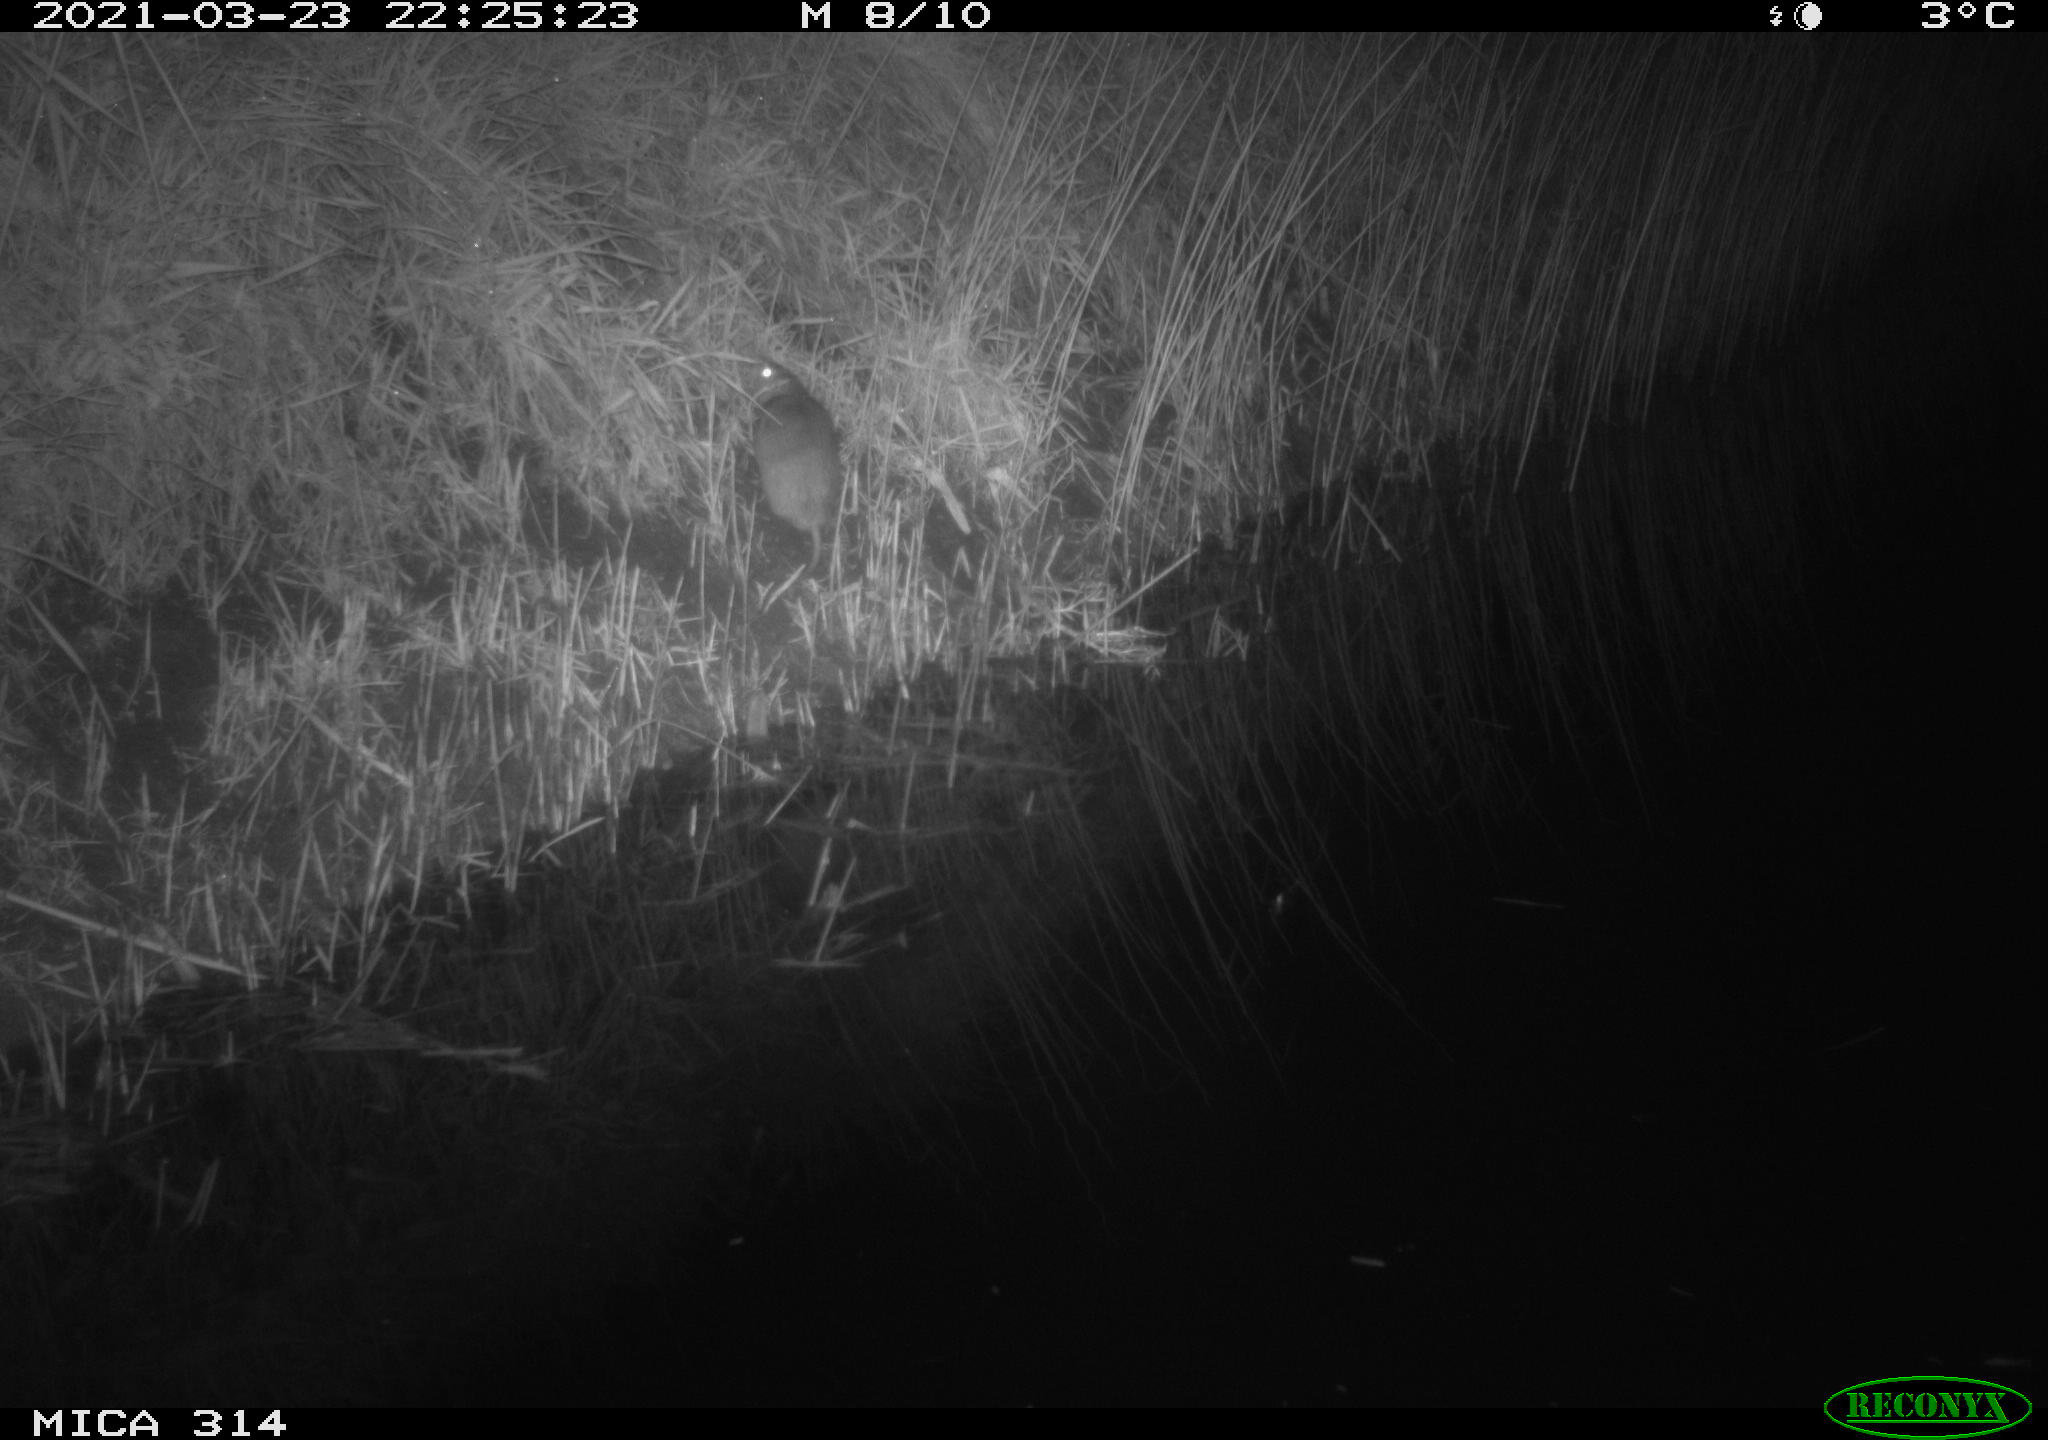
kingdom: Animalia
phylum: Chordata
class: Aves
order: Anseriformes
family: Anatidae
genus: Anas
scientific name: Anas platyrhynchos
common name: Mallard
